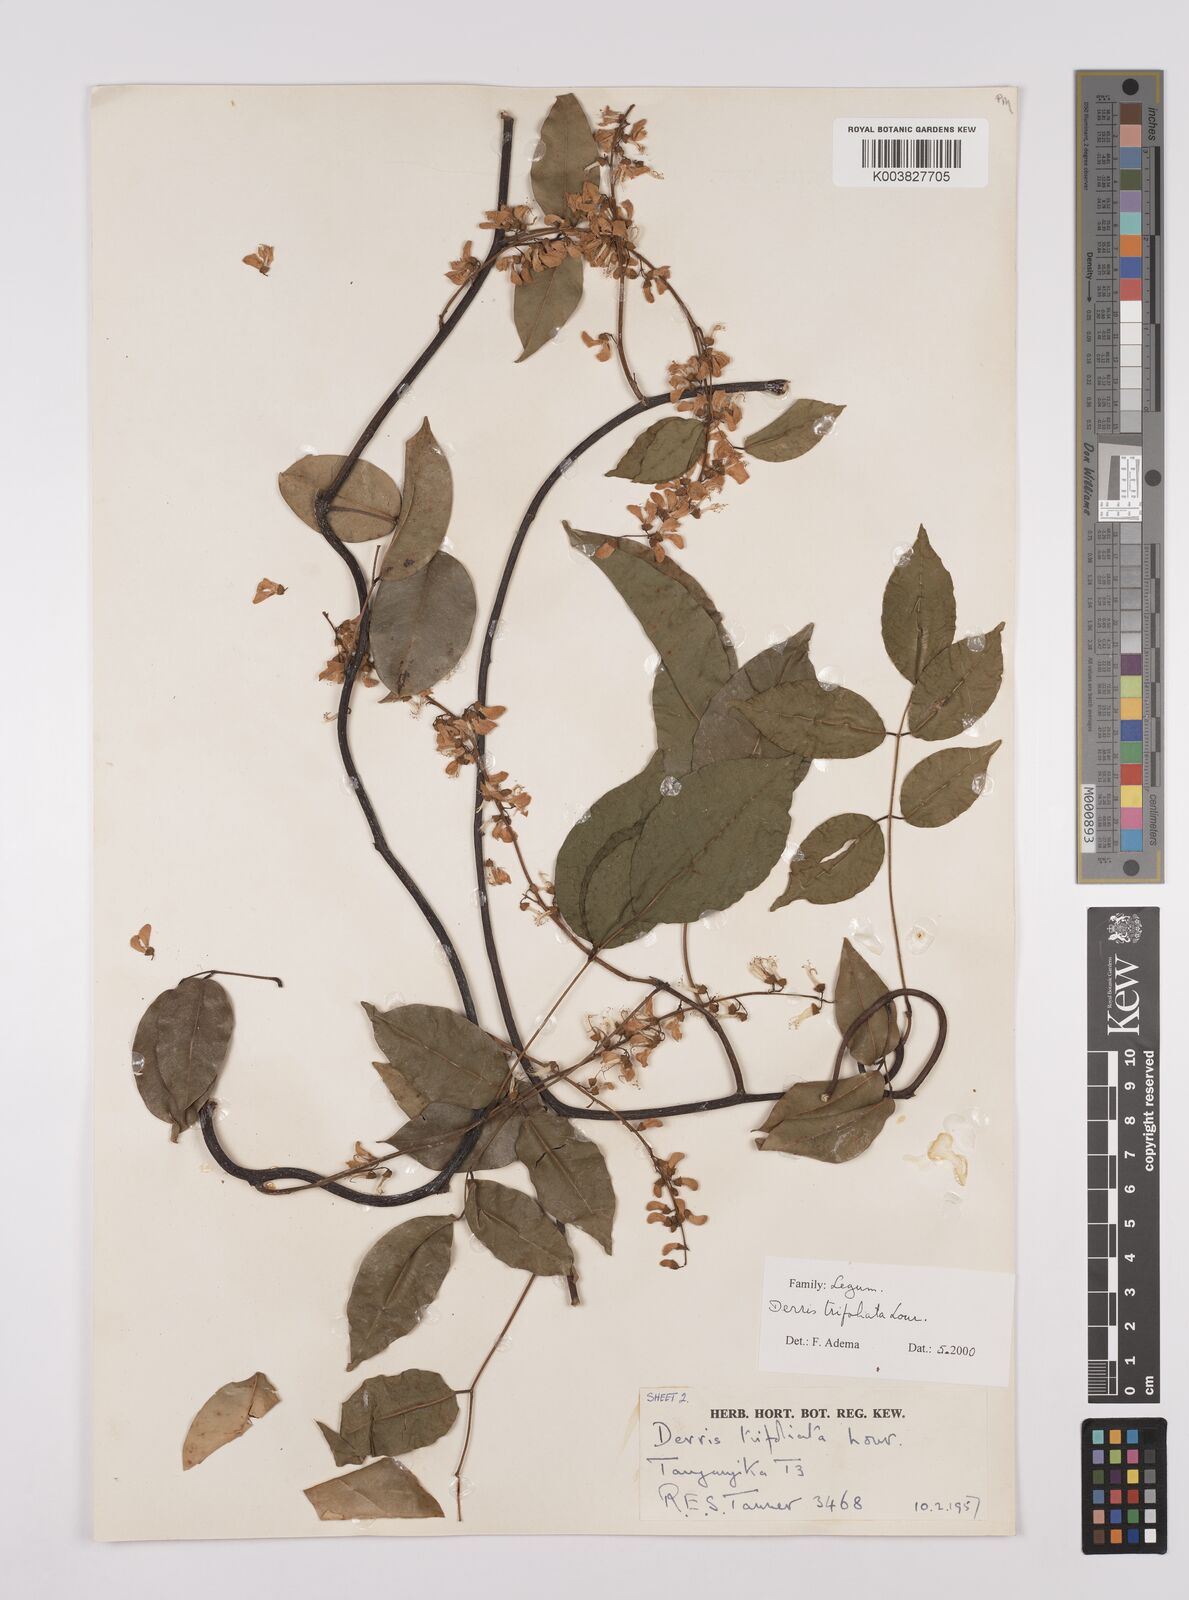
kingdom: Plantae
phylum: Tracheophyta
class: Magnoliopsida
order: Fabales
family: Fabaceae
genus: Derris
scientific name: Derris trifoliata
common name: Three-leaf derris
